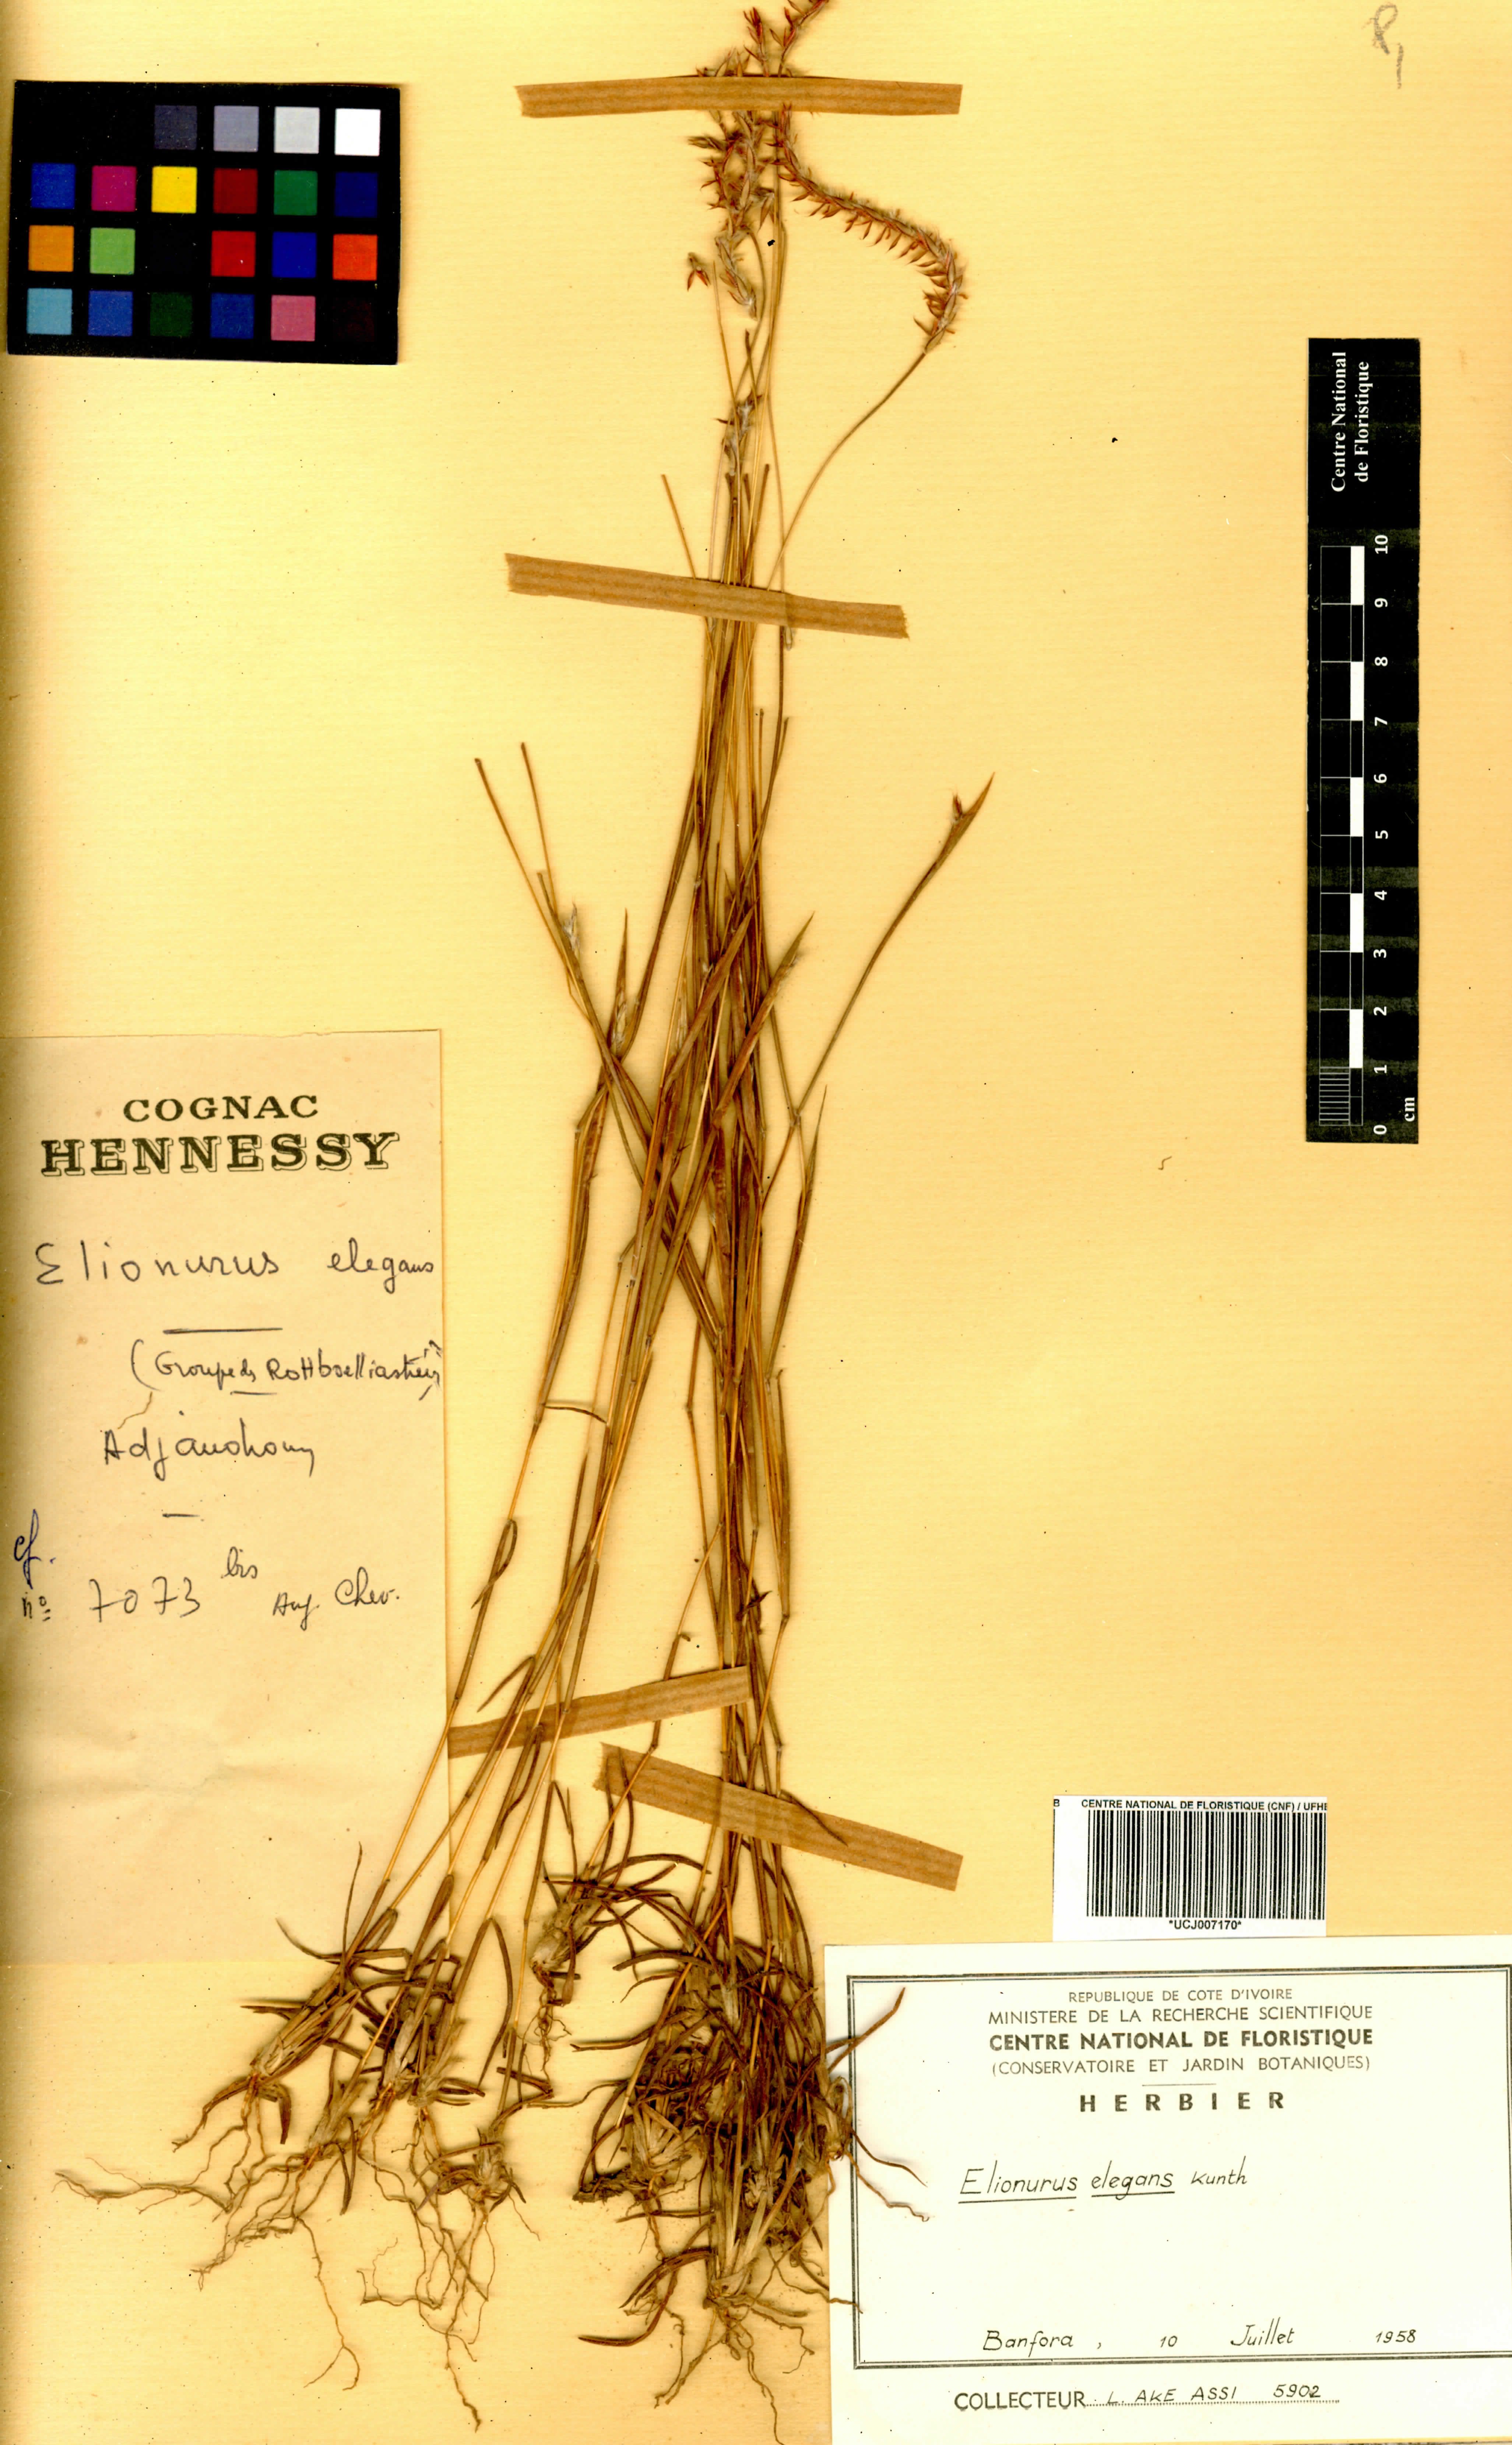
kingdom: Plantae
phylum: Tracheophyta
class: Liliopsida
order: Poales
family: Poaceae
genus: Elionurus
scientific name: Elionurus elegans
